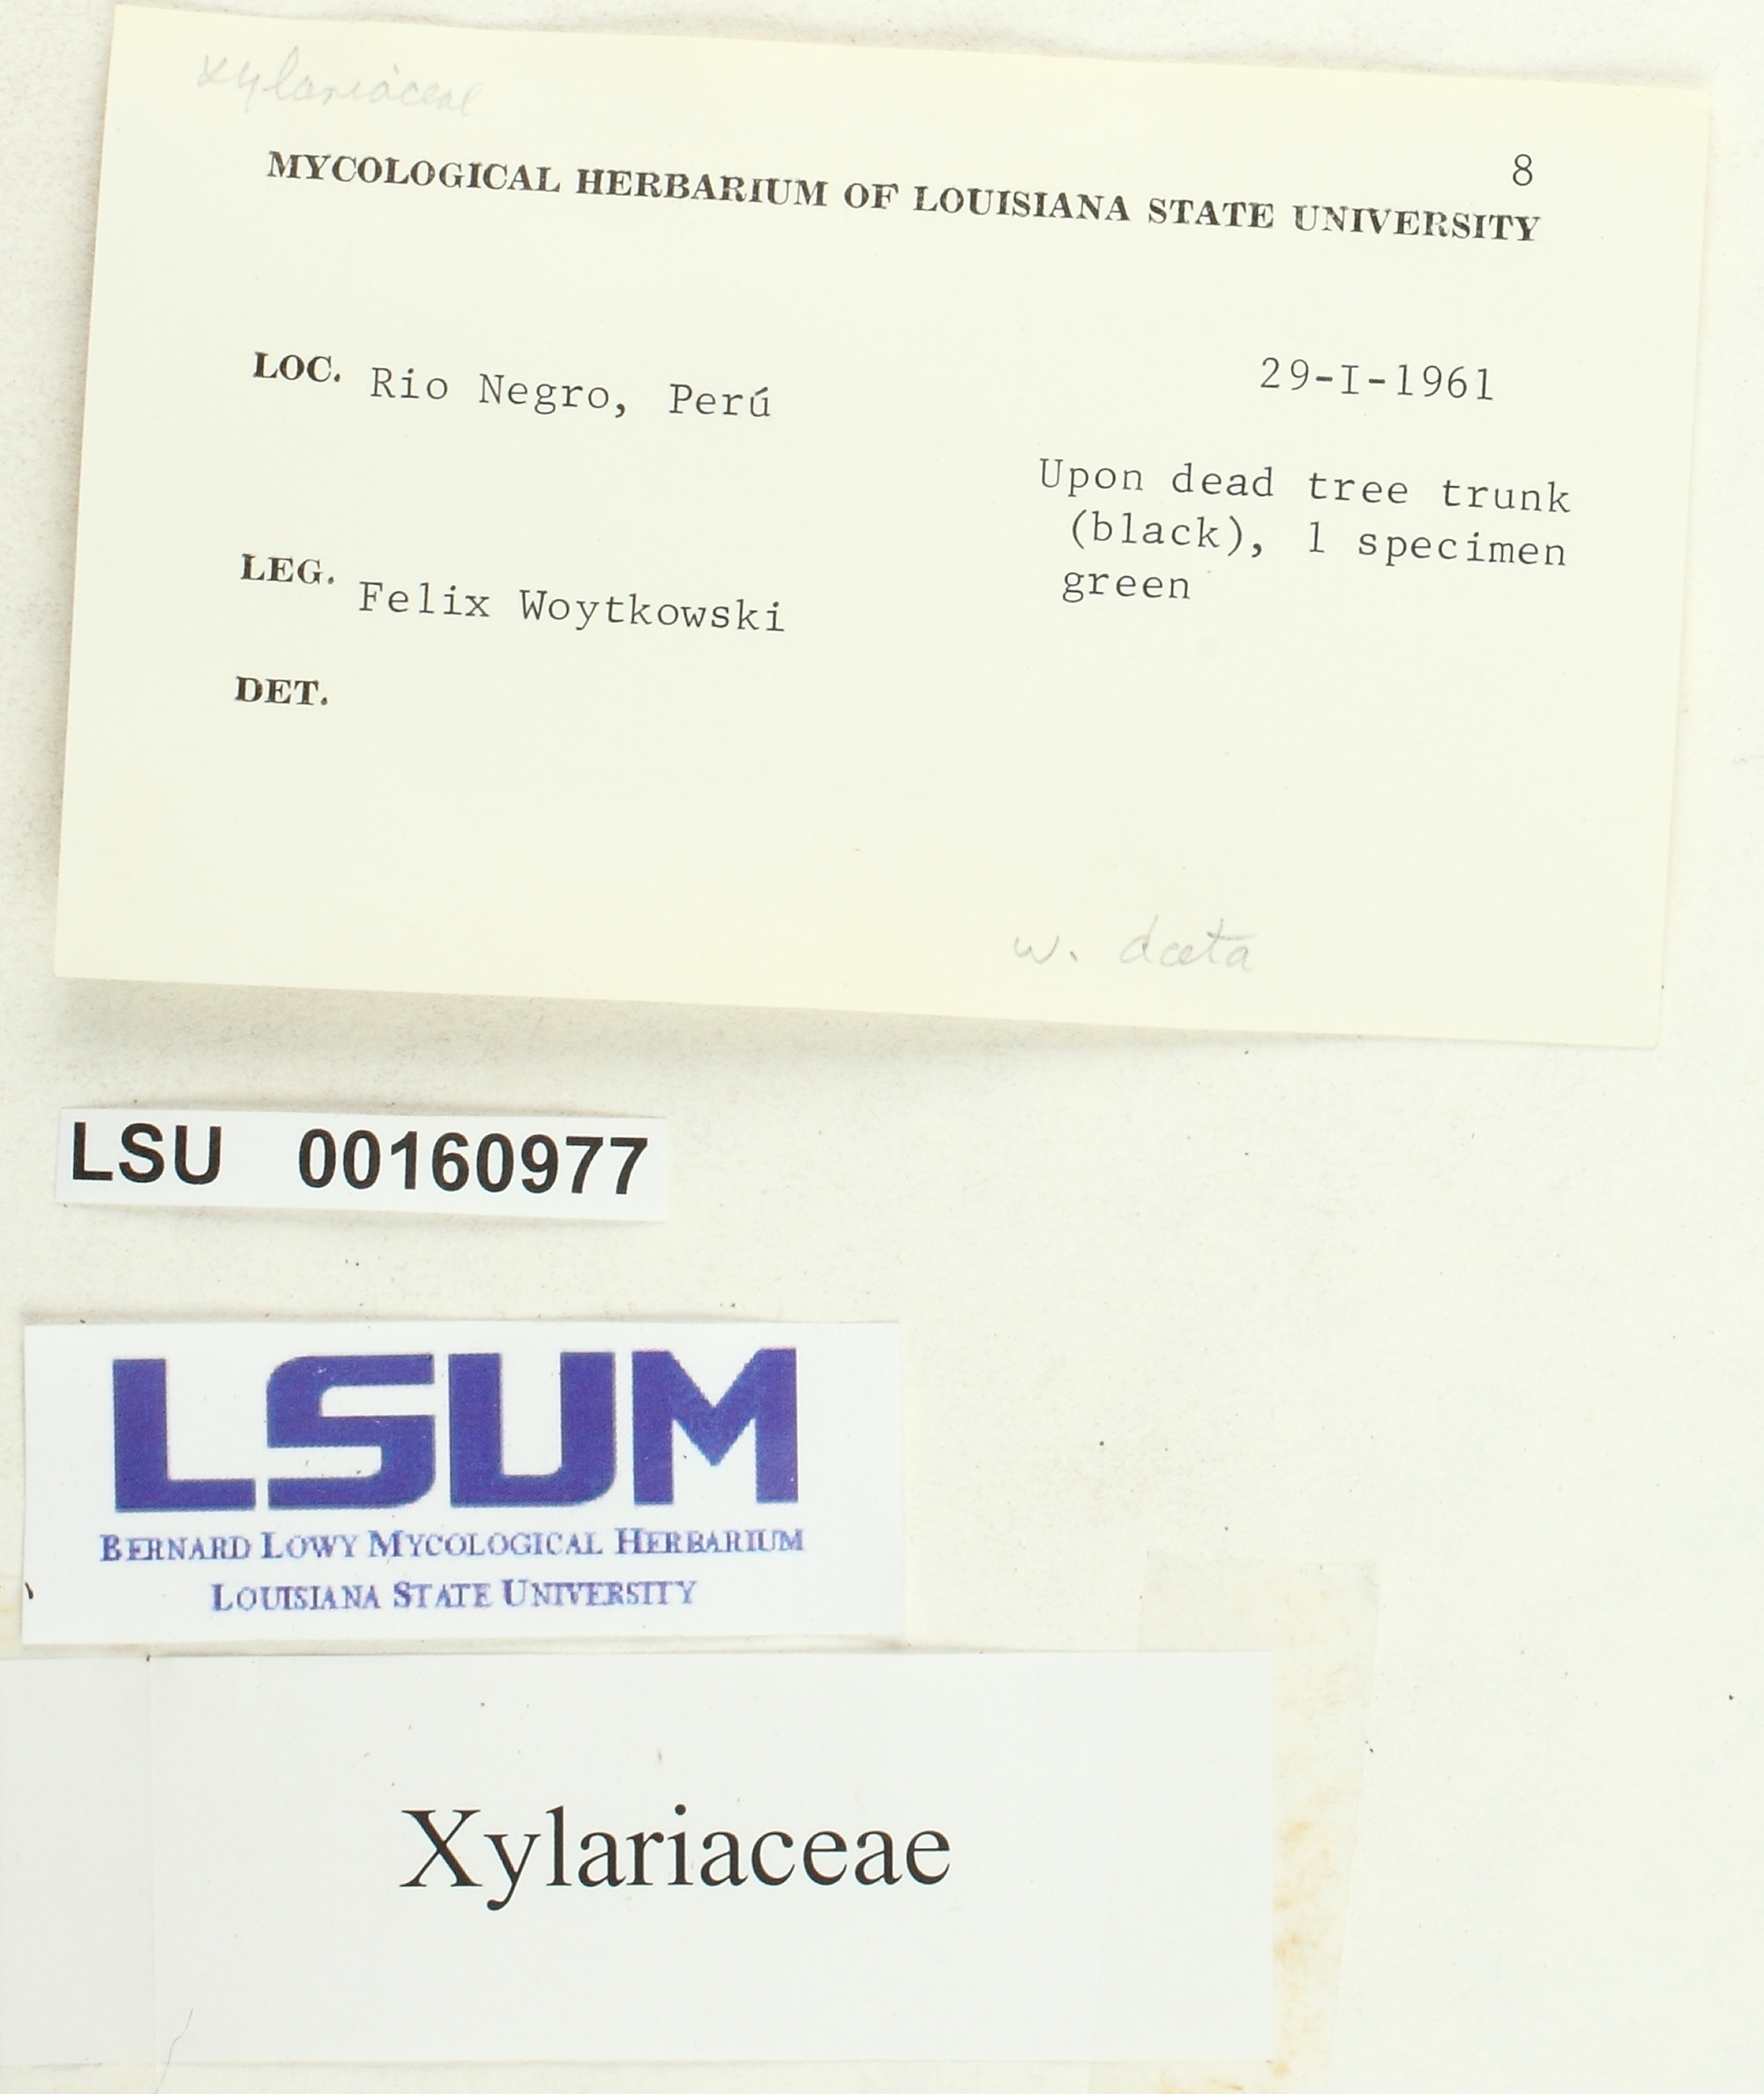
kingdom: Fungi
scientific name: Fungi
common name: Fungi
